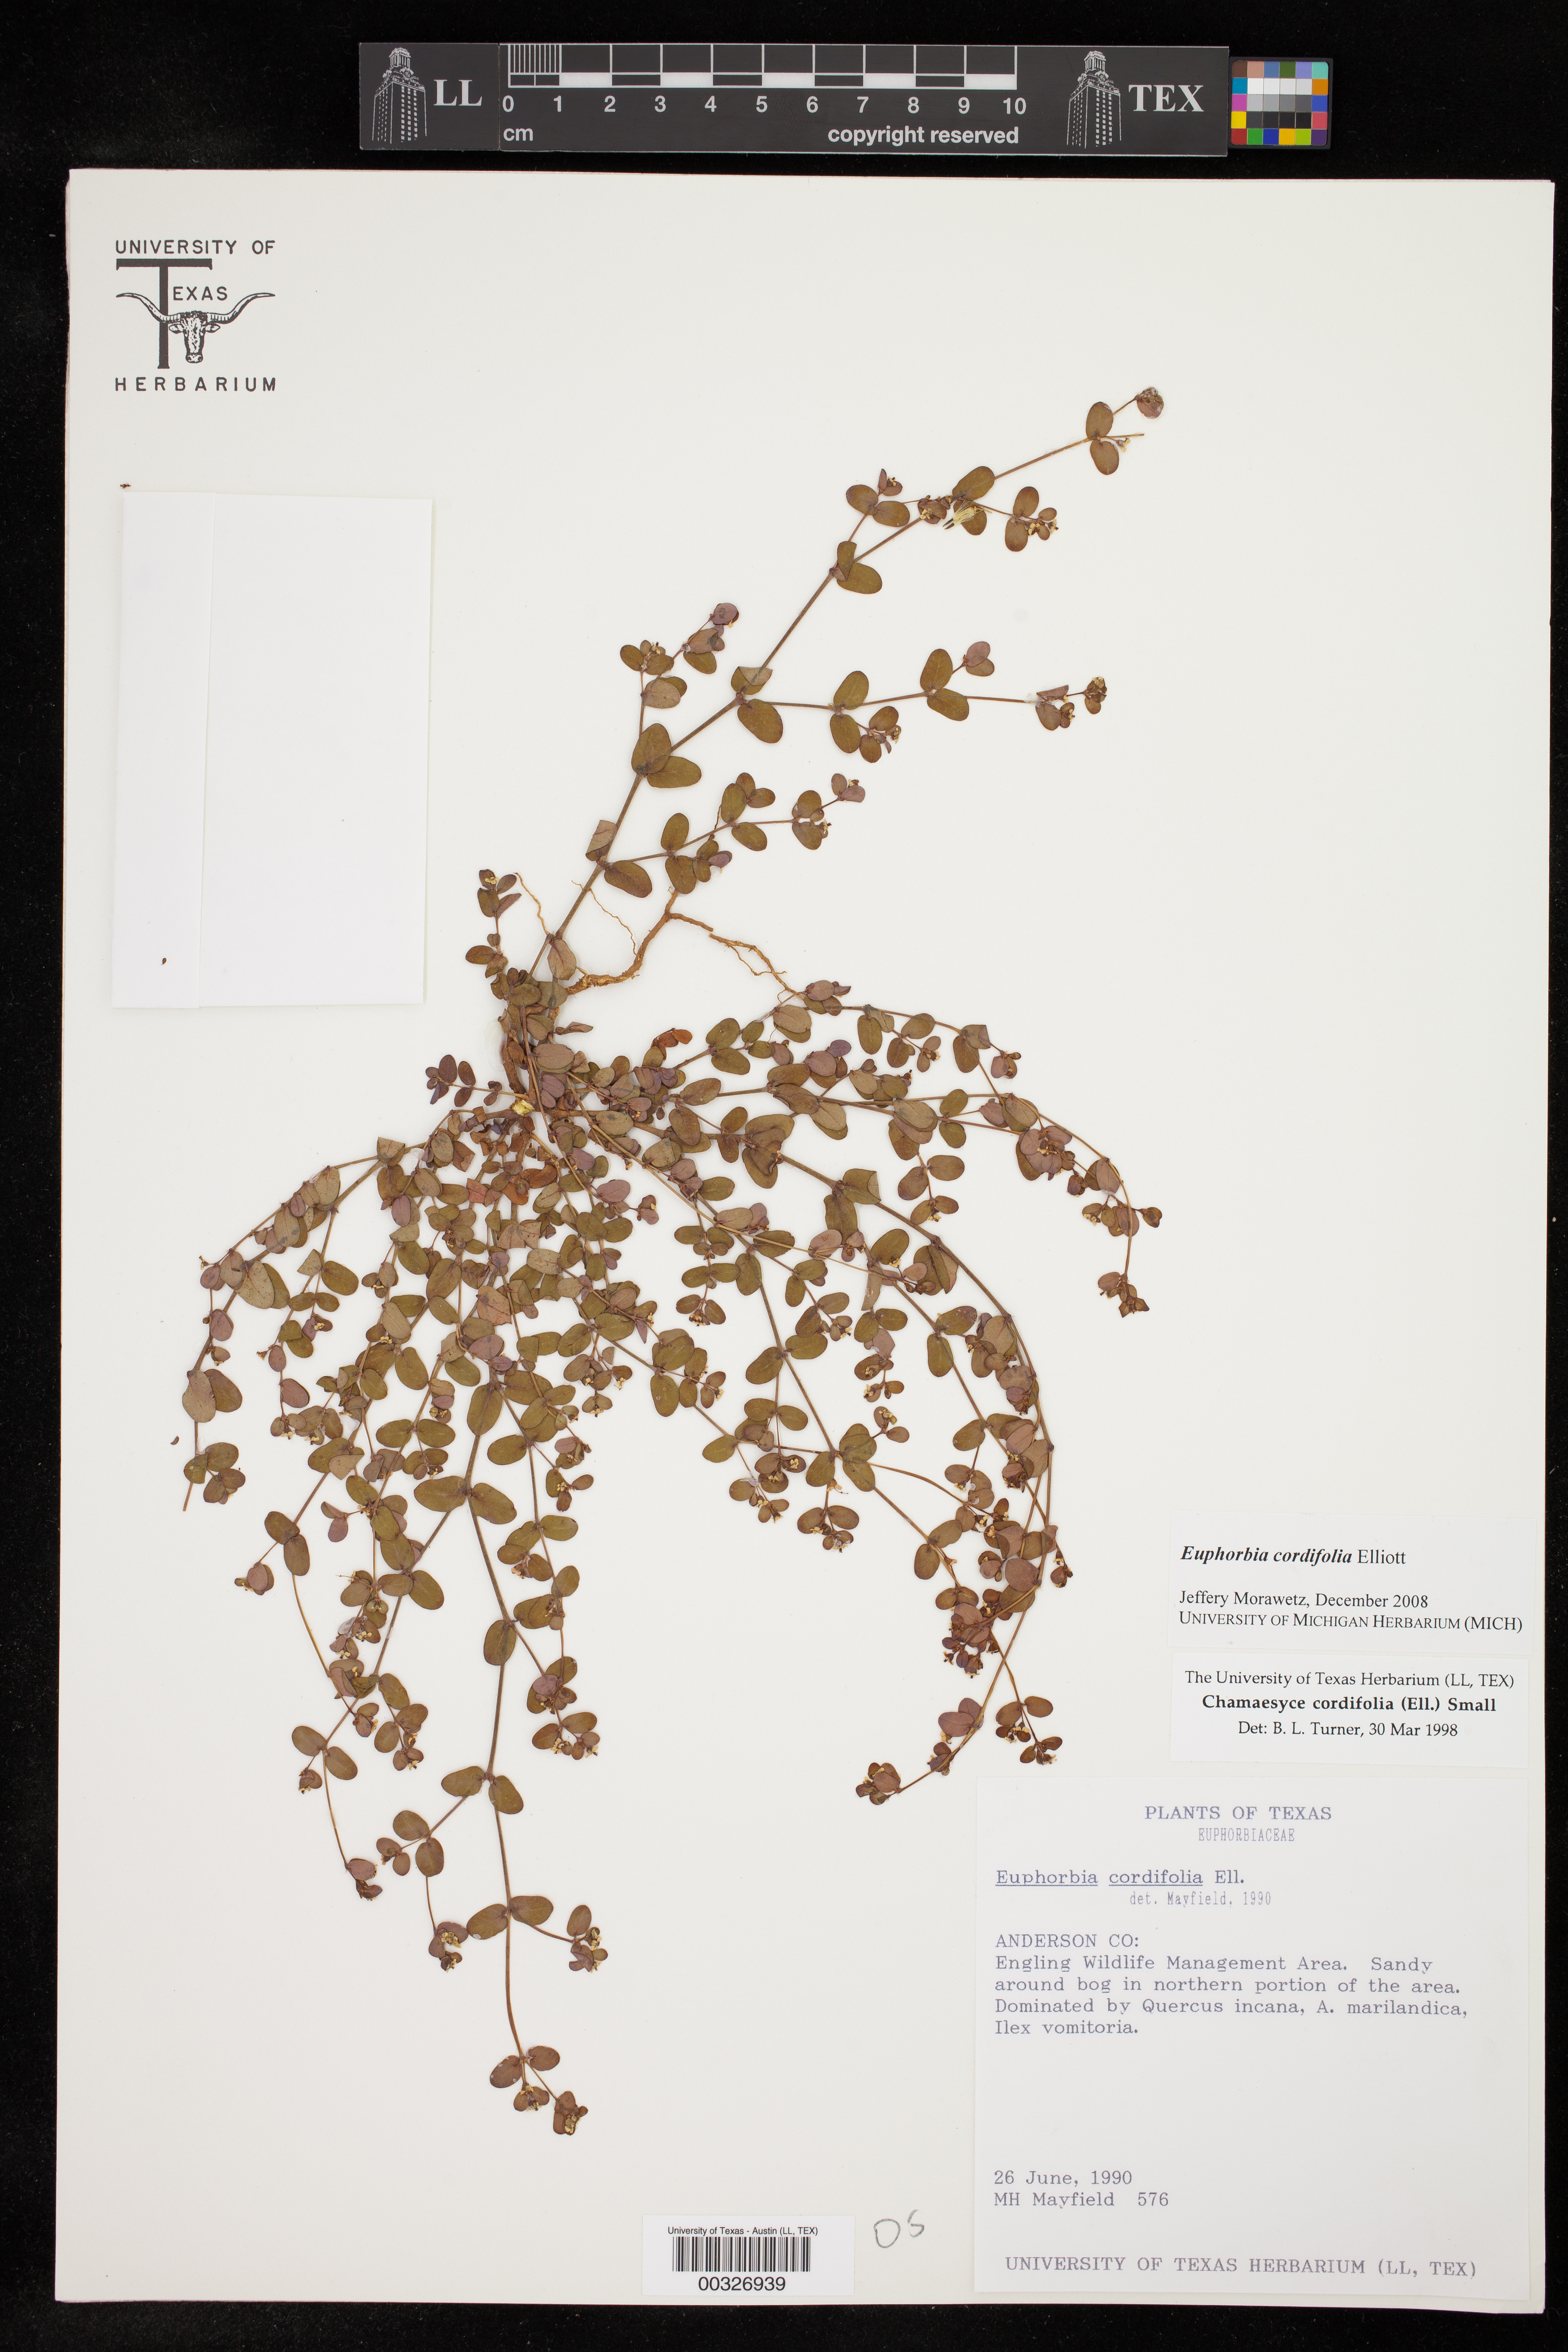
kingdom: Plantae
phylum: Tracheophyta
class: Magnoliopsida
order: Malpighiales
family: Euphorbiaceae
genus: Euphorbia
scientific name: Euphorbia cordifolia
